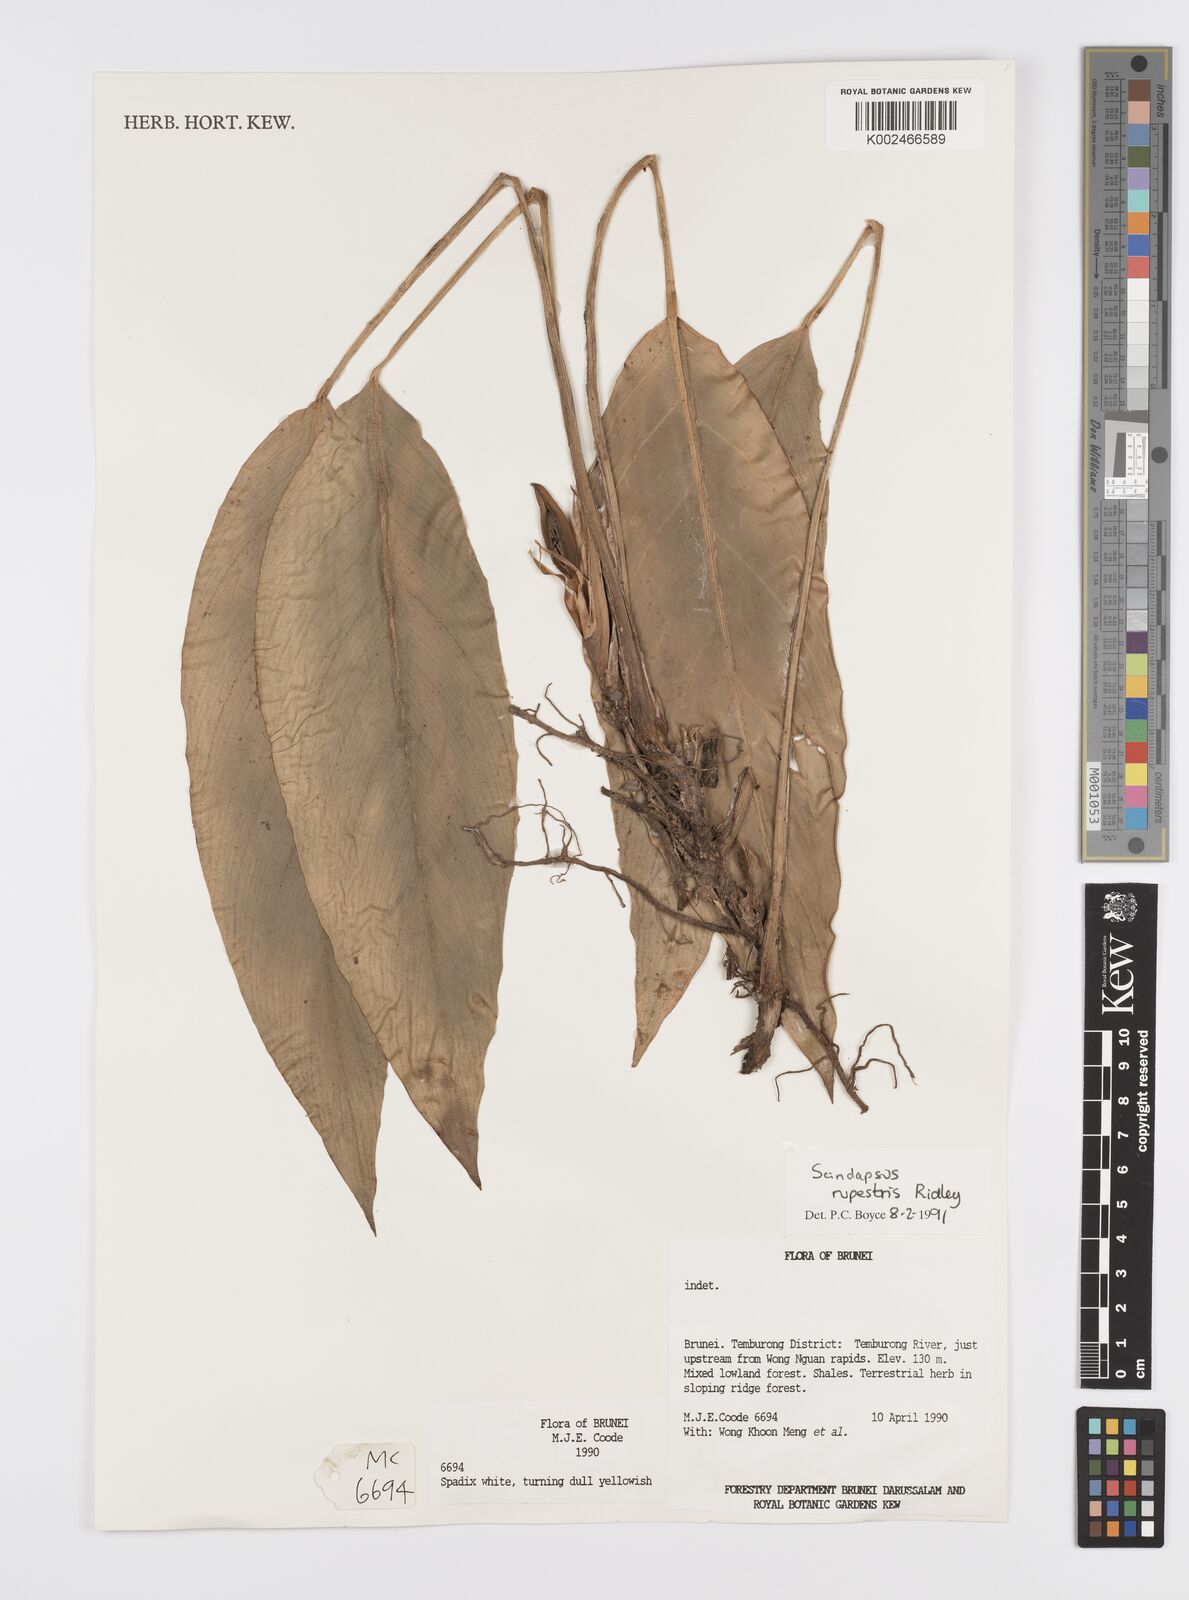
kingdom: Plantae
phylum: Tracheophyta
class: Liliopsida
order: Alismatales
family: Araceae
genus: Scindapsus
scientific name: Scindapsus sumatranus
